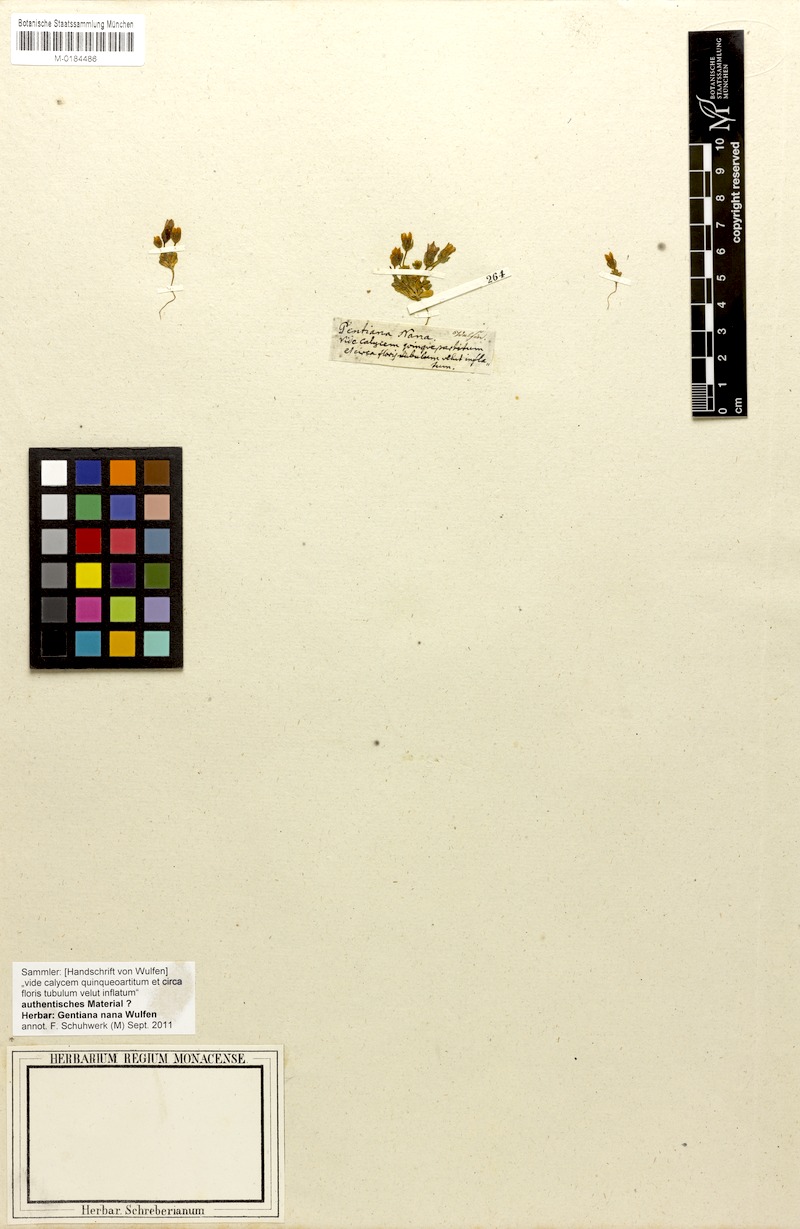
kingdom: Plantae
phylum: Tracheophyta
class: Magnoliopsida
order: Gentianales
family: Gentianaceae
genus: Comastoma
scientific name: Comastoma nanum
